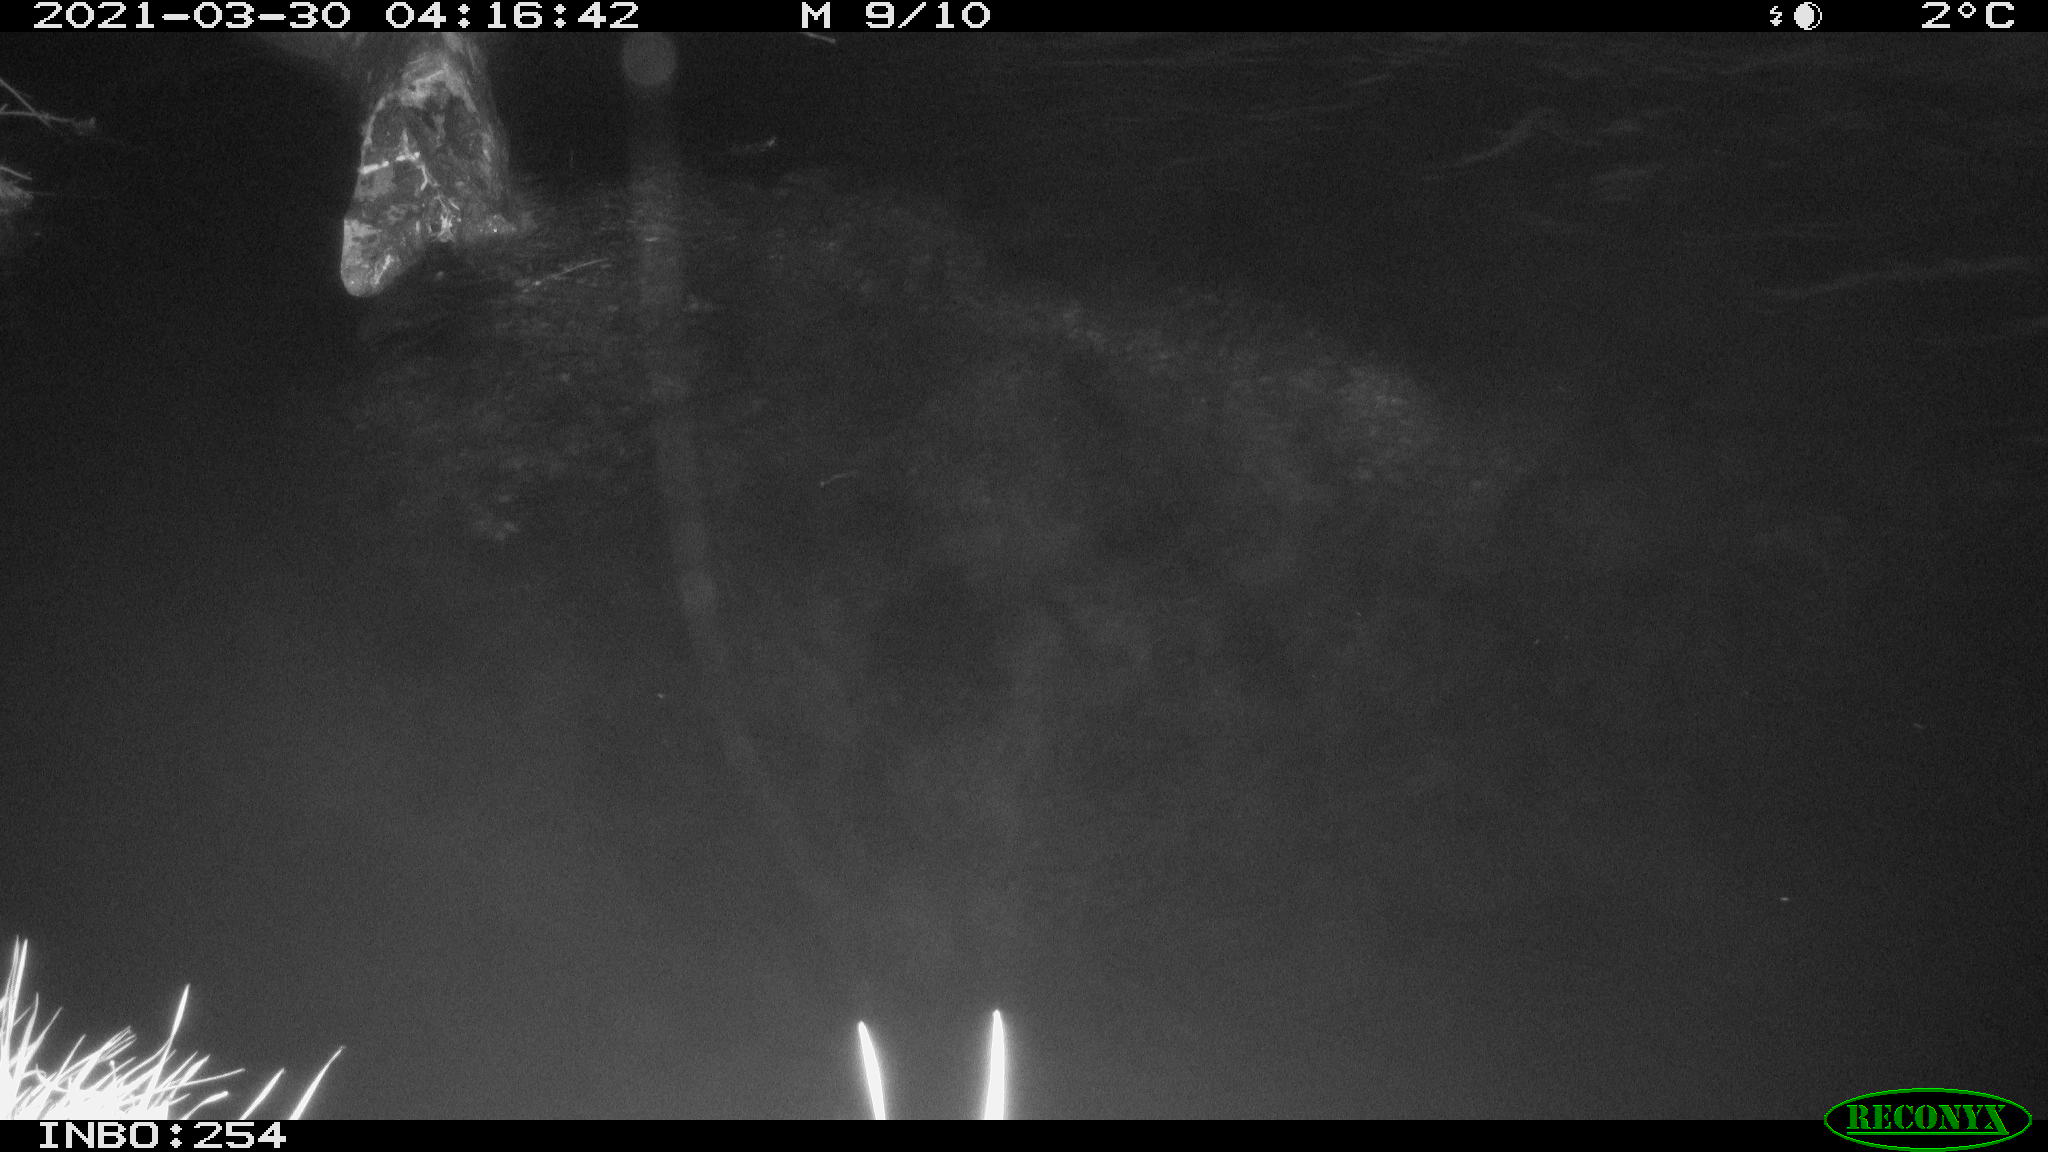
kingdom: Animalia
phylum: Chordata
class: Aves
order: Anseriformes
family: Anatidae
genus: Anas
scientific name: Anas platyrhynchos
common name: Mallard
